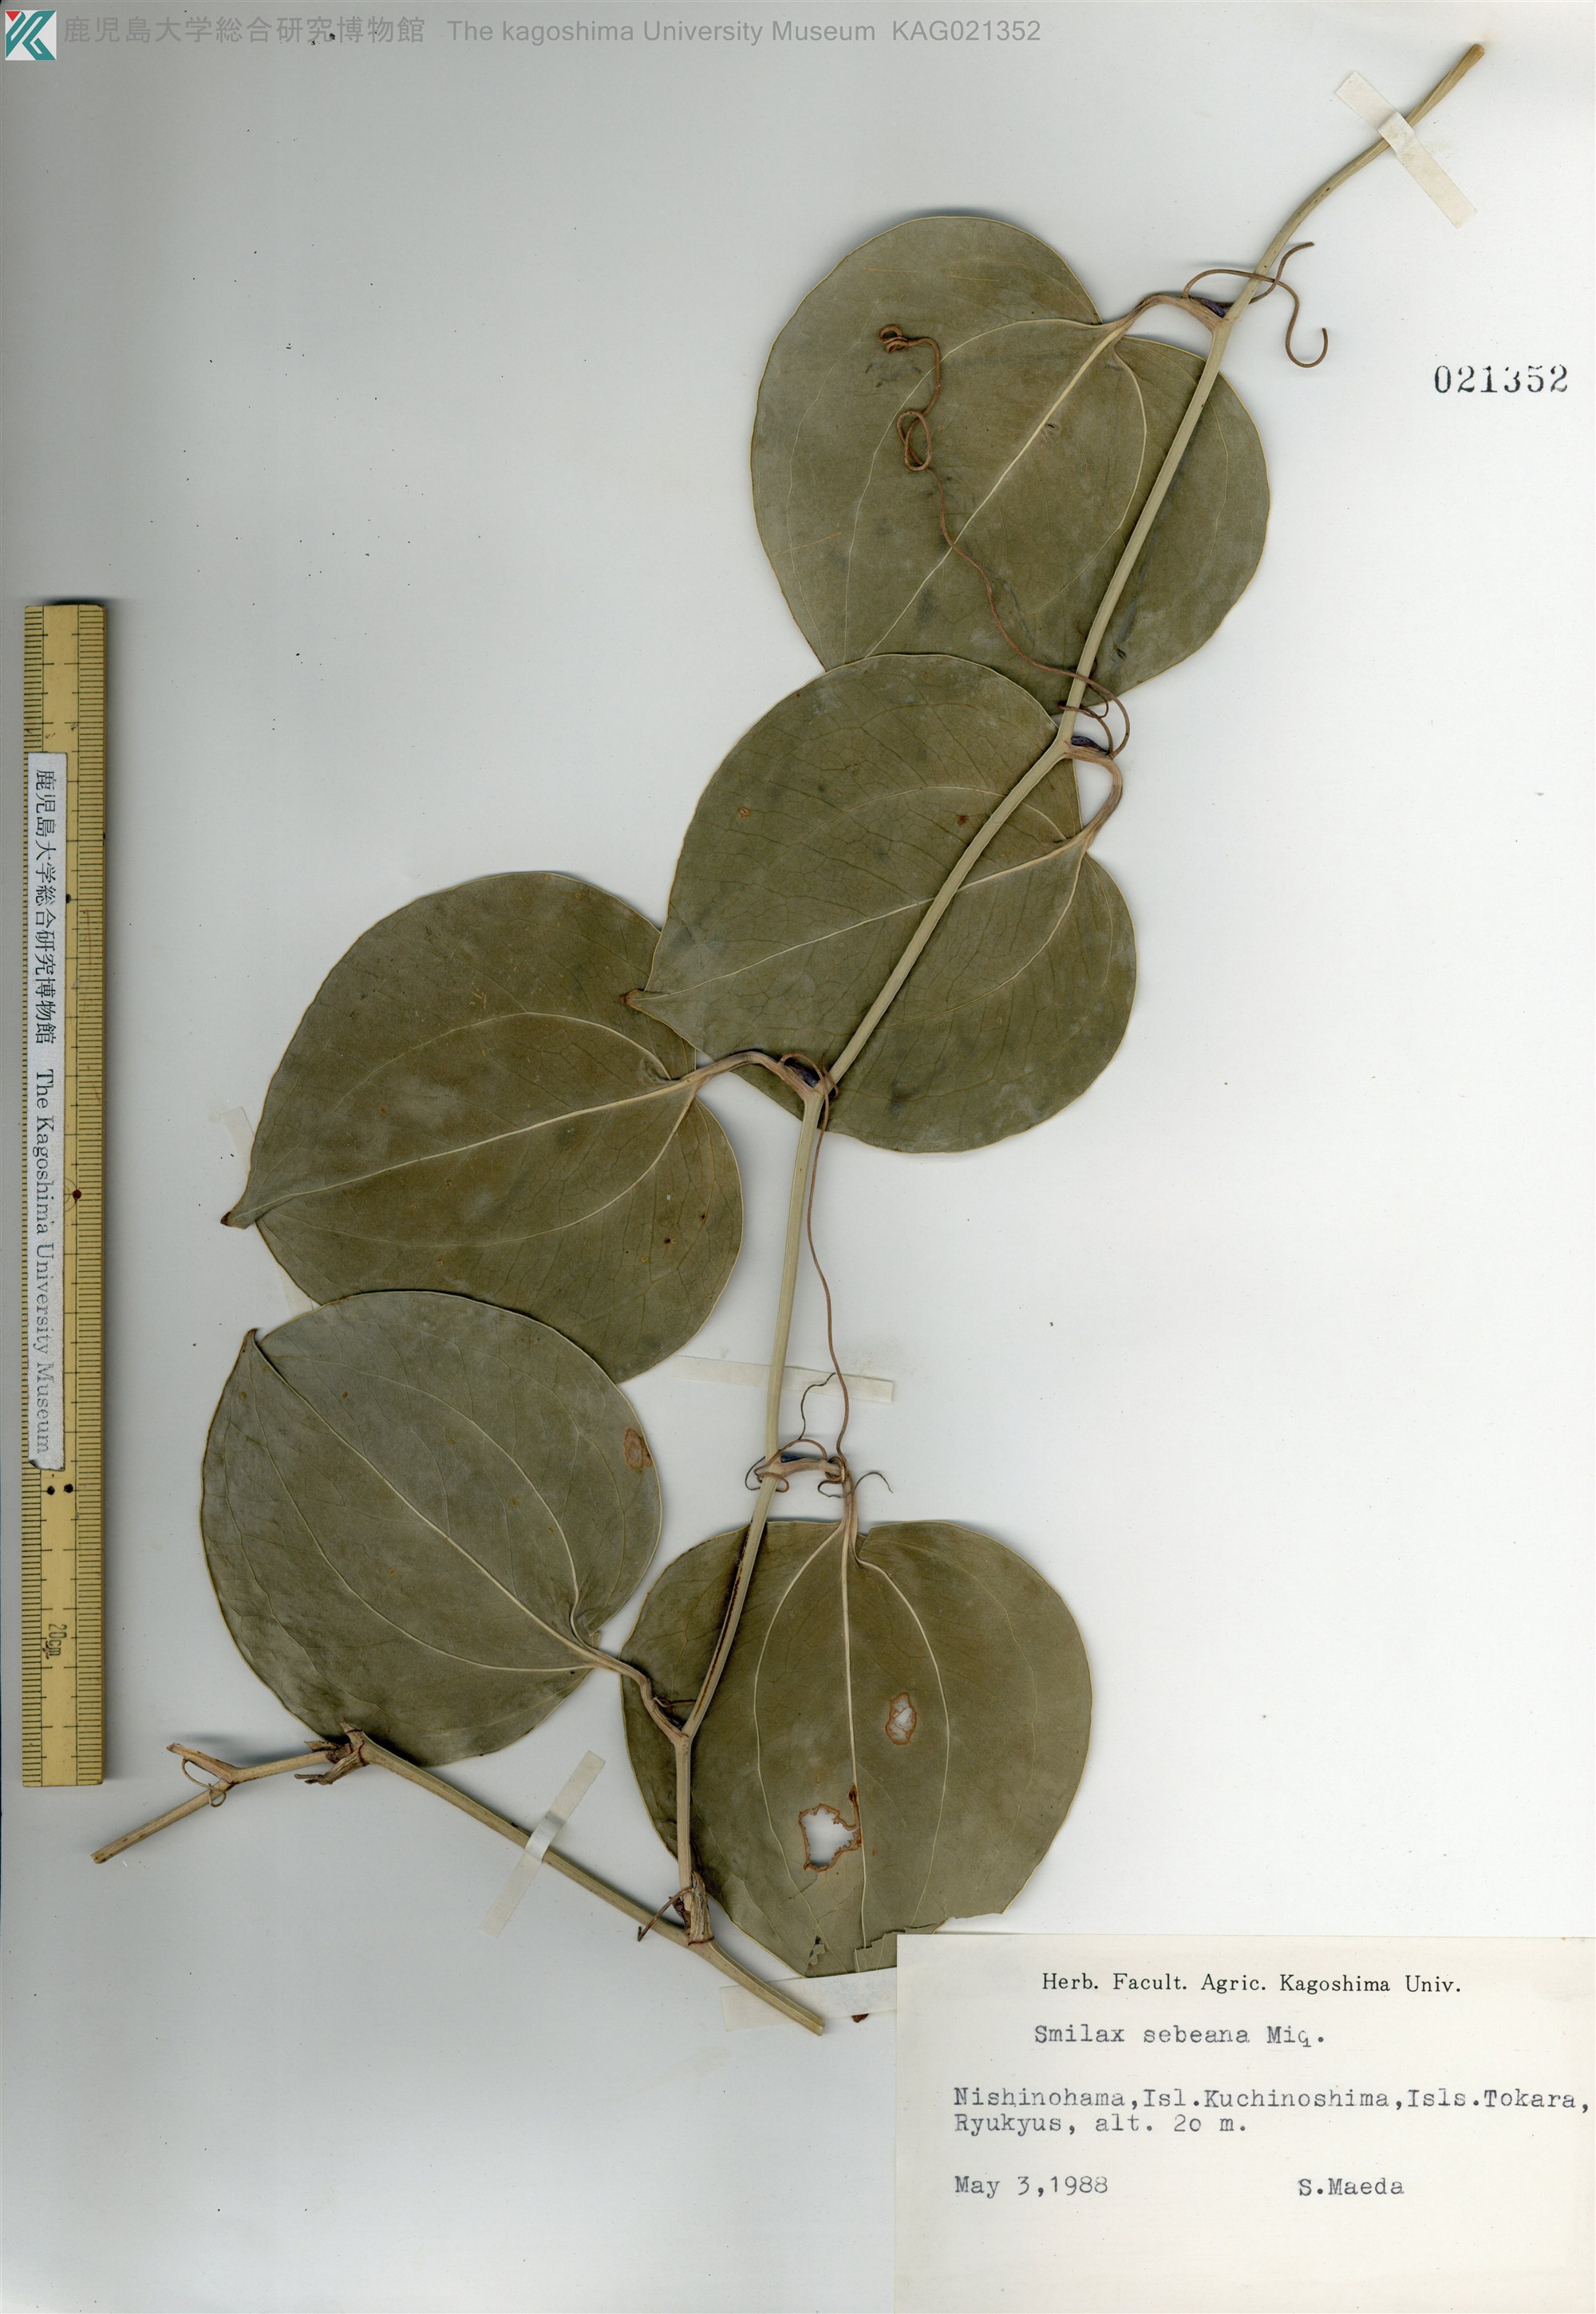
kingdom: Plantae
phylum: Tracheophyta
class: Liliopsida
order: Liliales
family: Smilacaceae
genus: Smilax
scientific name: Smilax sebeana
